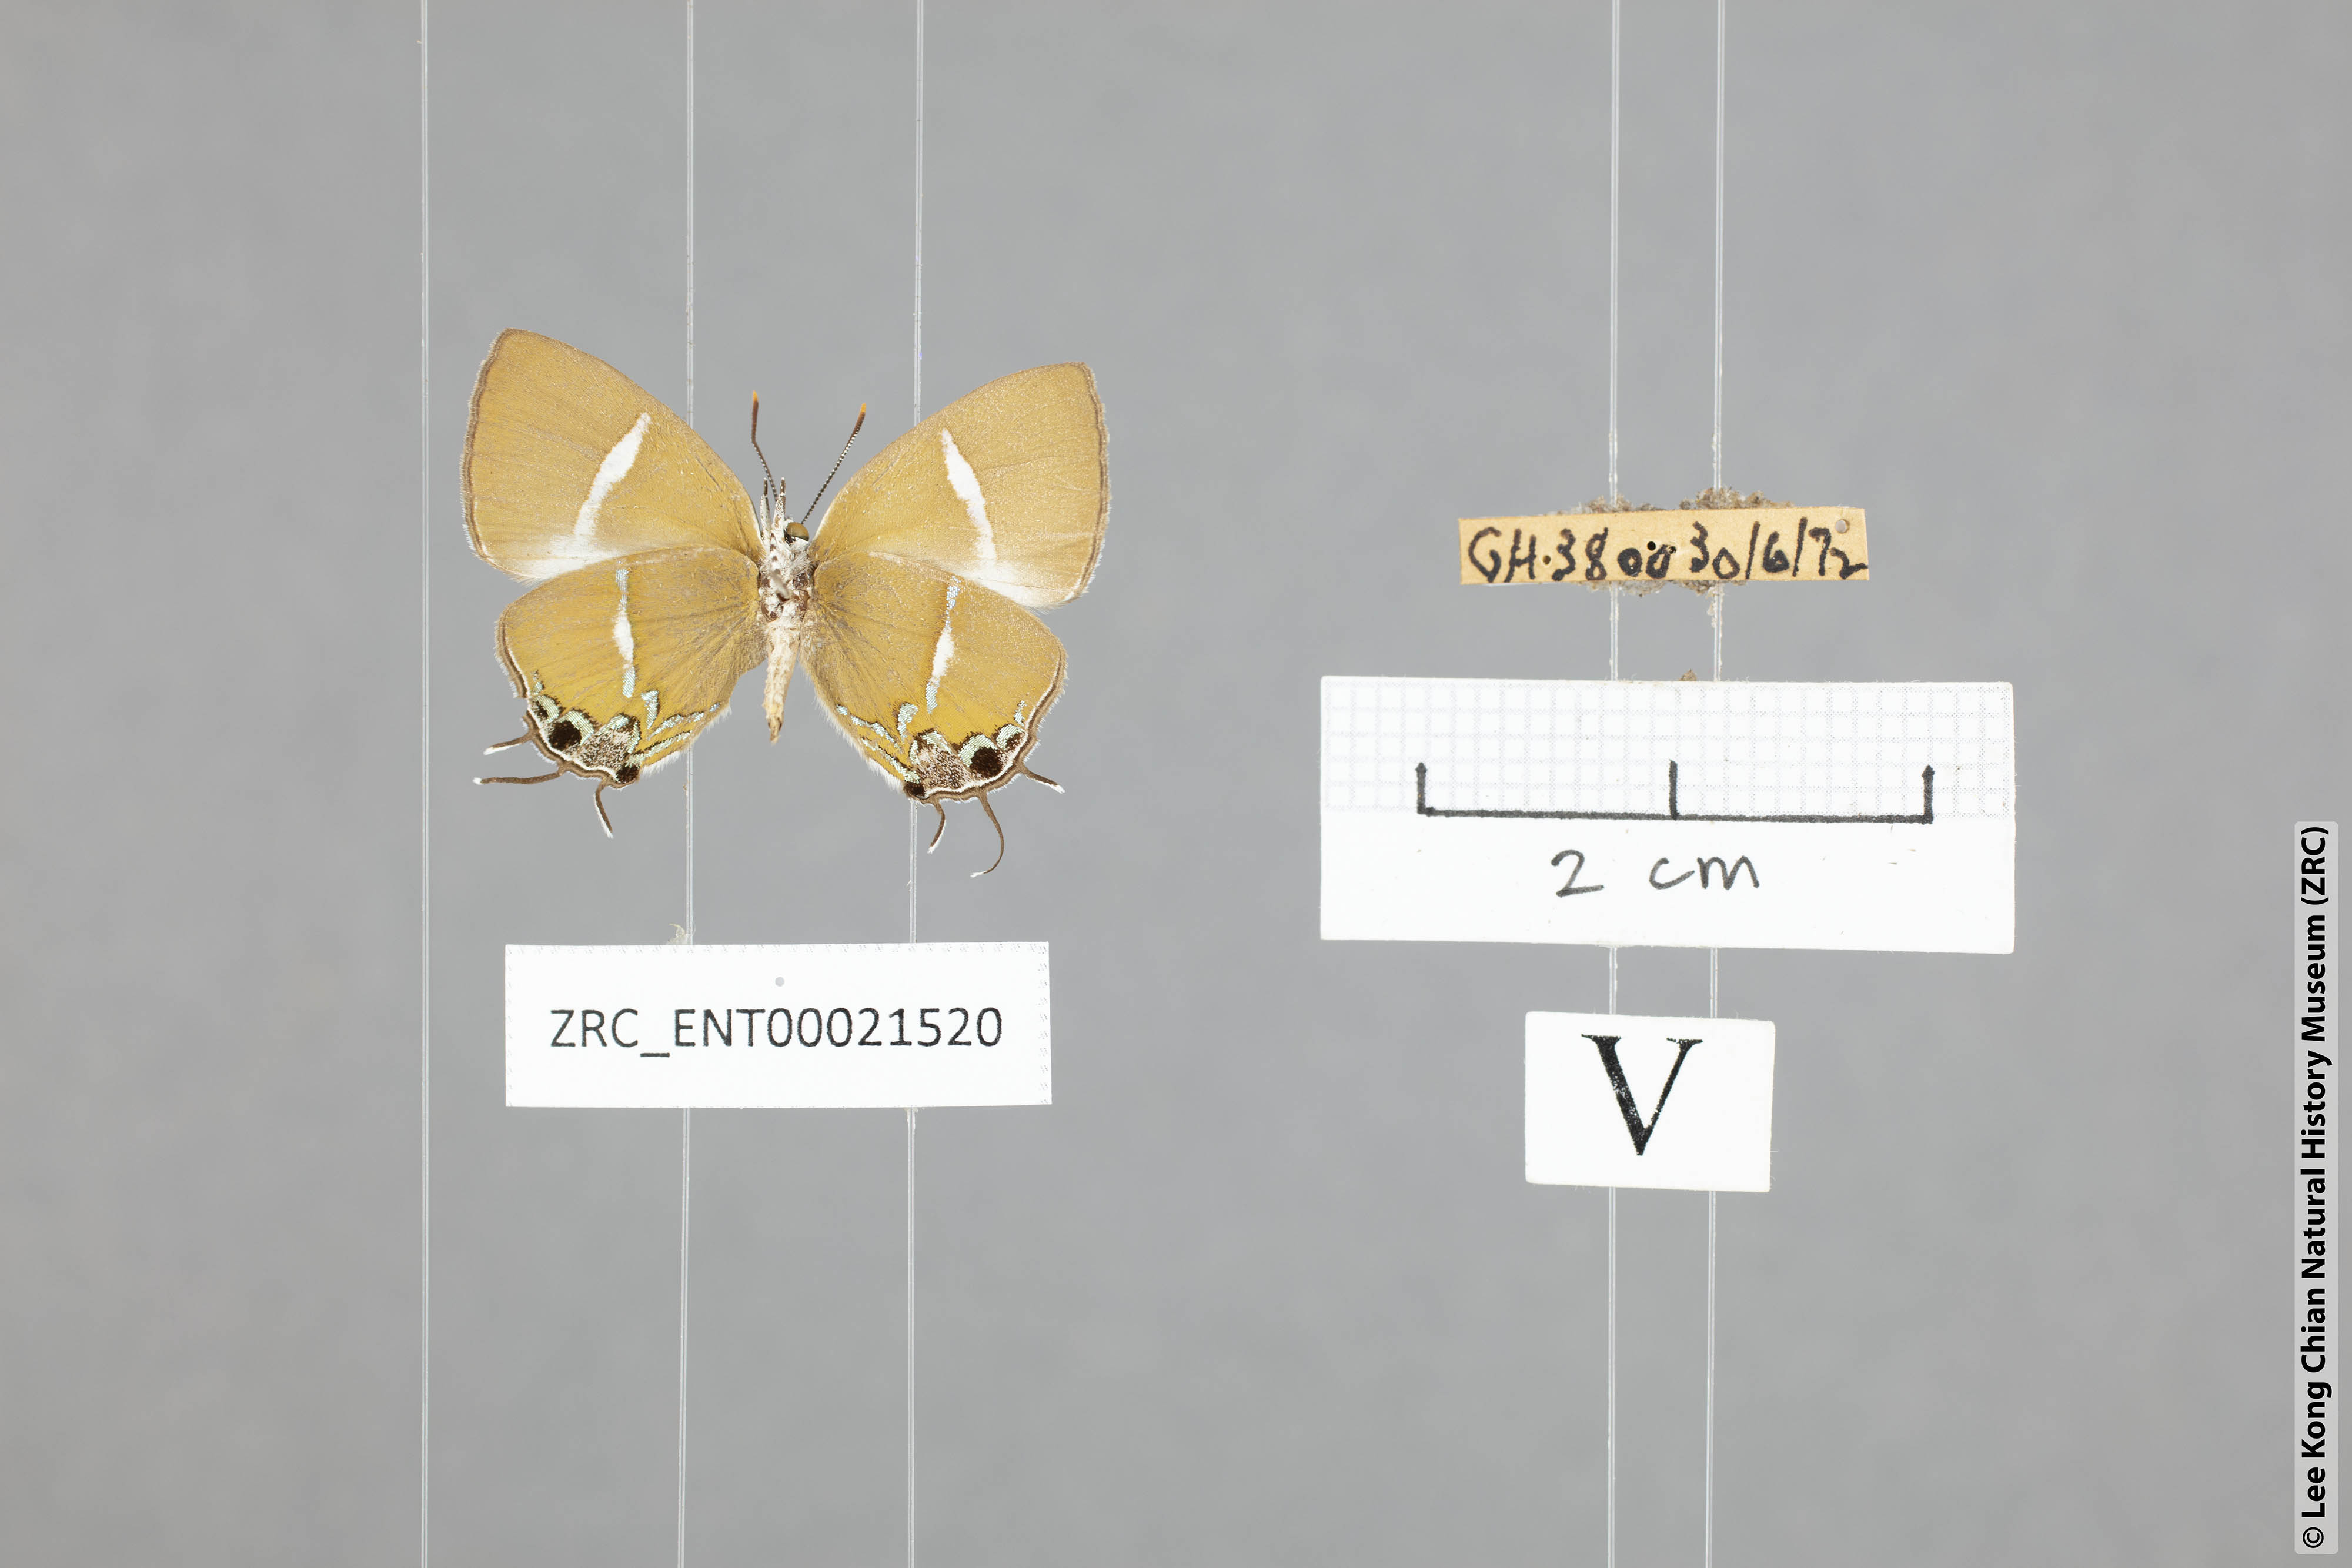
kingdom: Animalia
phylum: Arthropoda
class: Insecta
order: Lepidoptera
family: Lycaenidae
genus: Horaga
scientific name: Horaga amethystus
